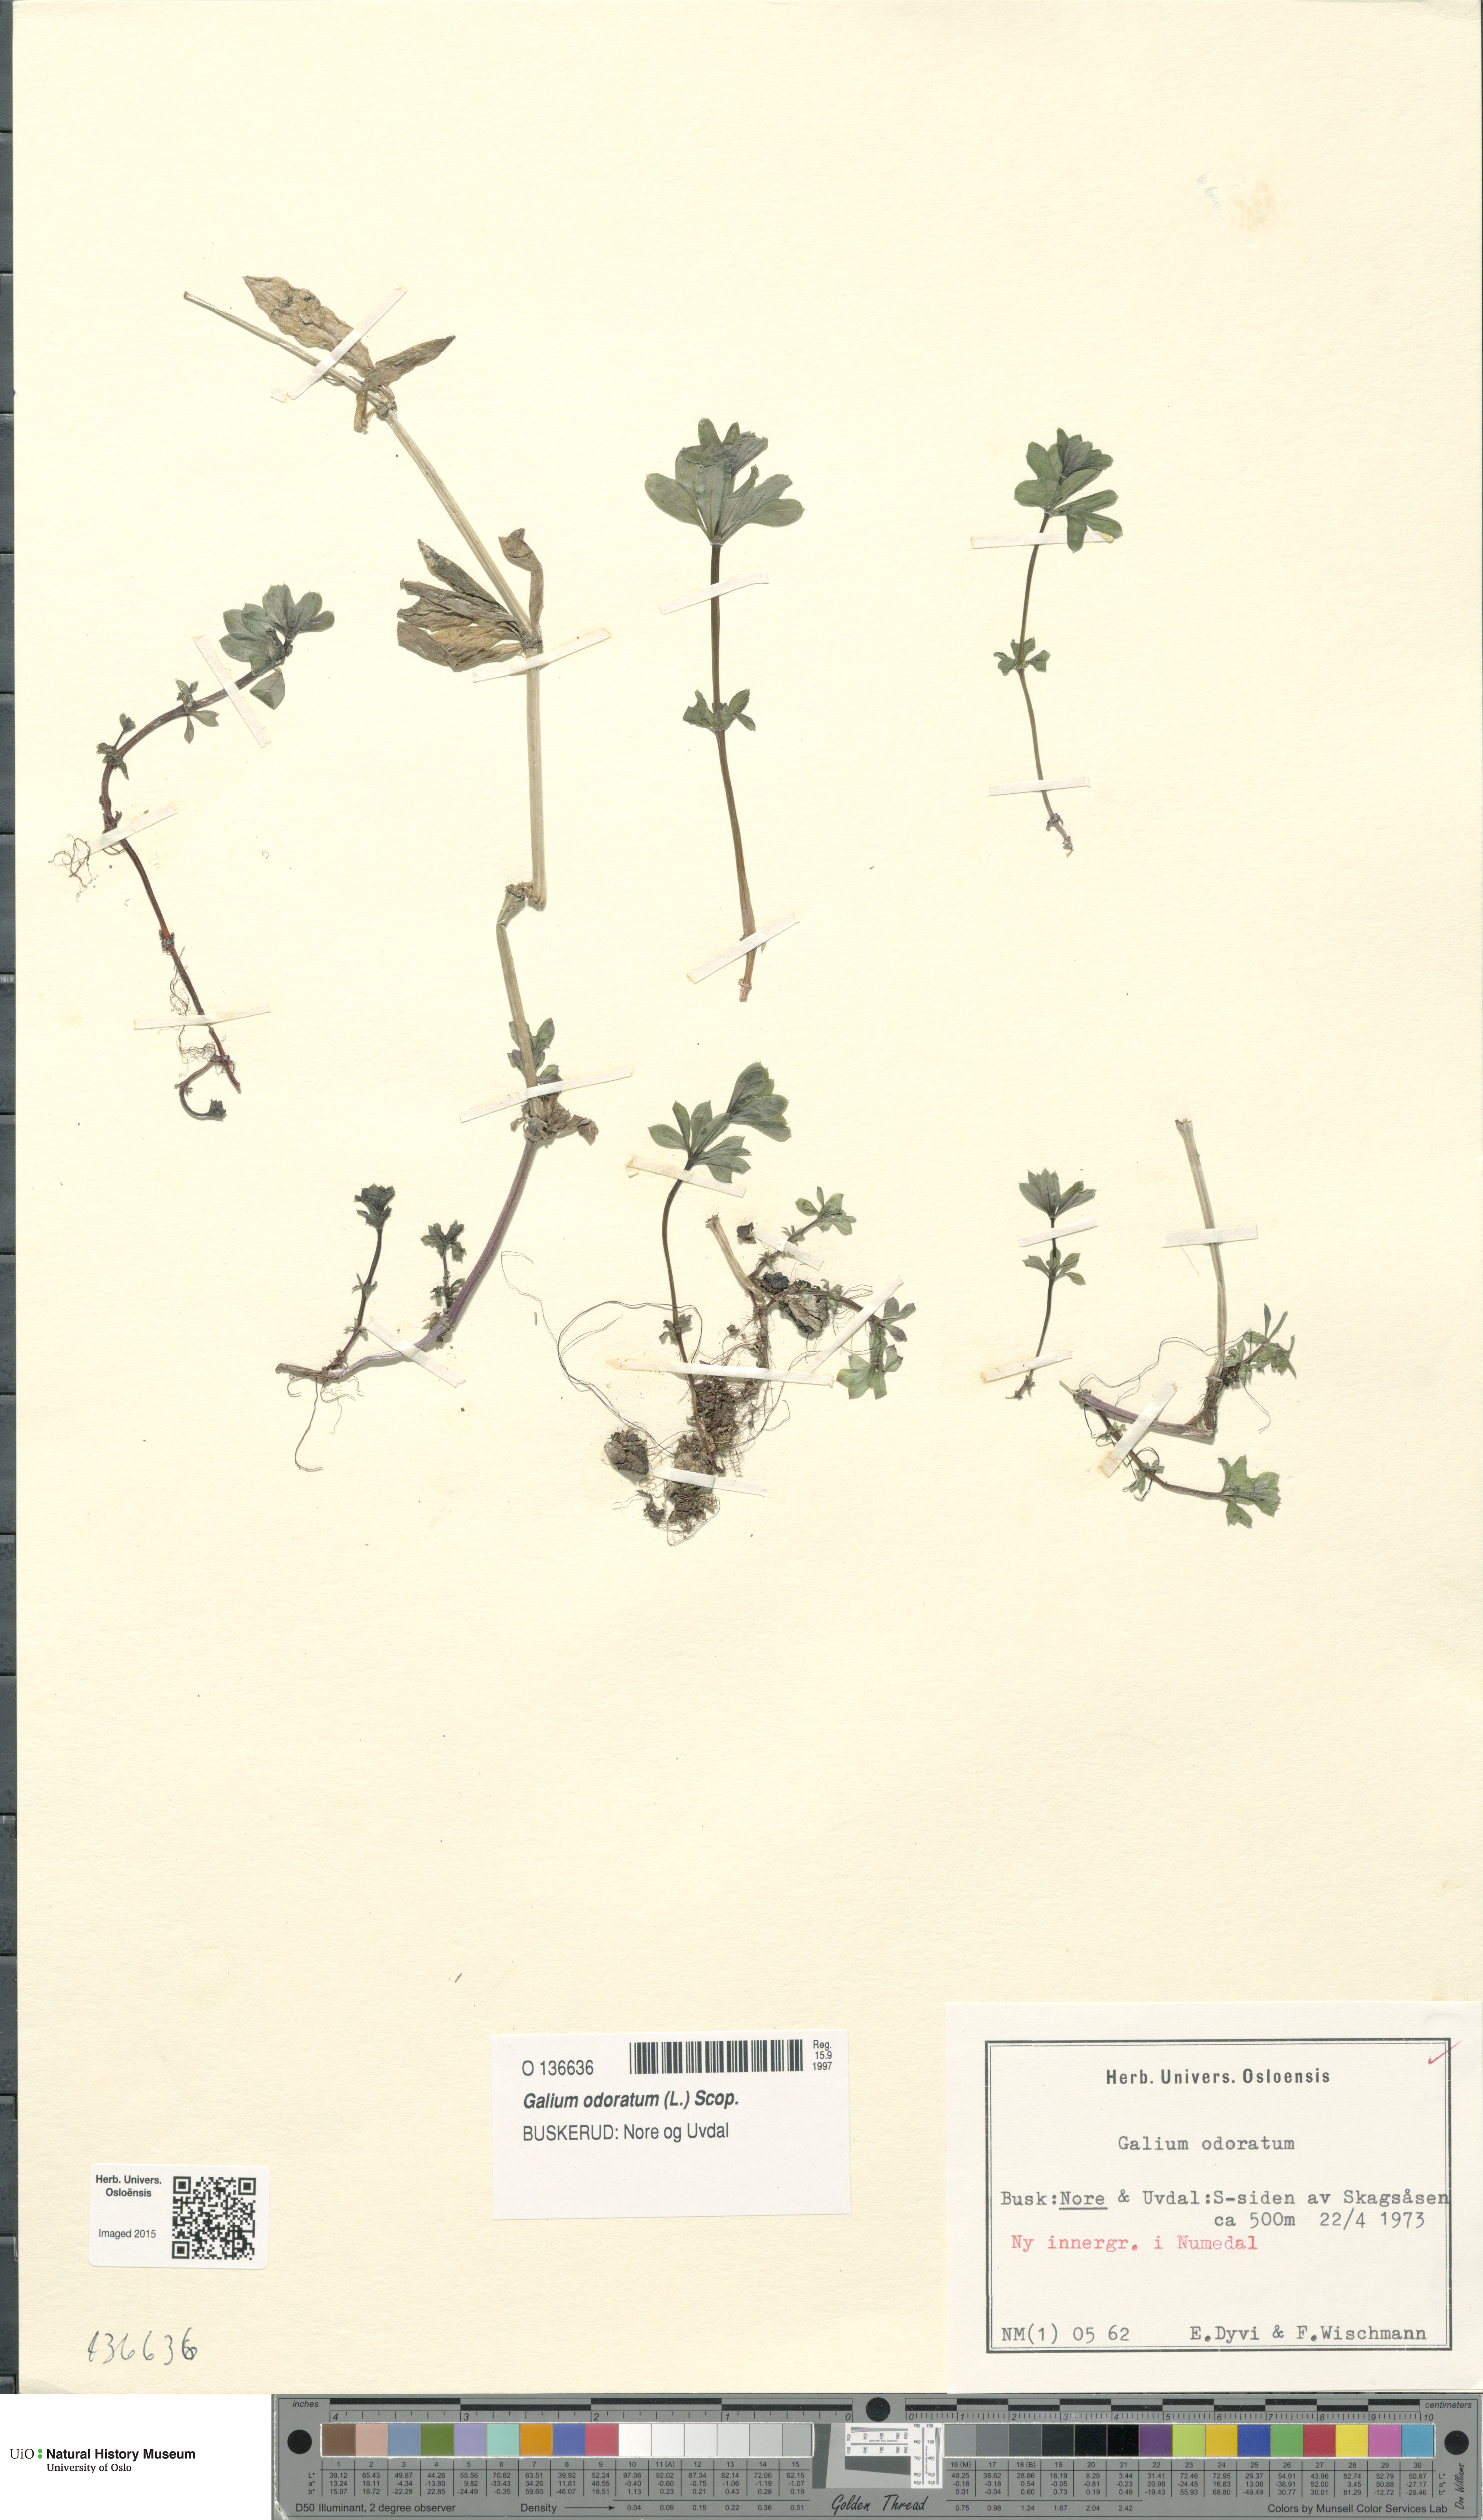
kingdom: Plantae
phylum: Tracheophyta
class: Magnoliopsida
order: Gentianales
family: Rubiaceae
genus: Galium
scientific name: Galium odoratum
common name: Sweet woodruff
